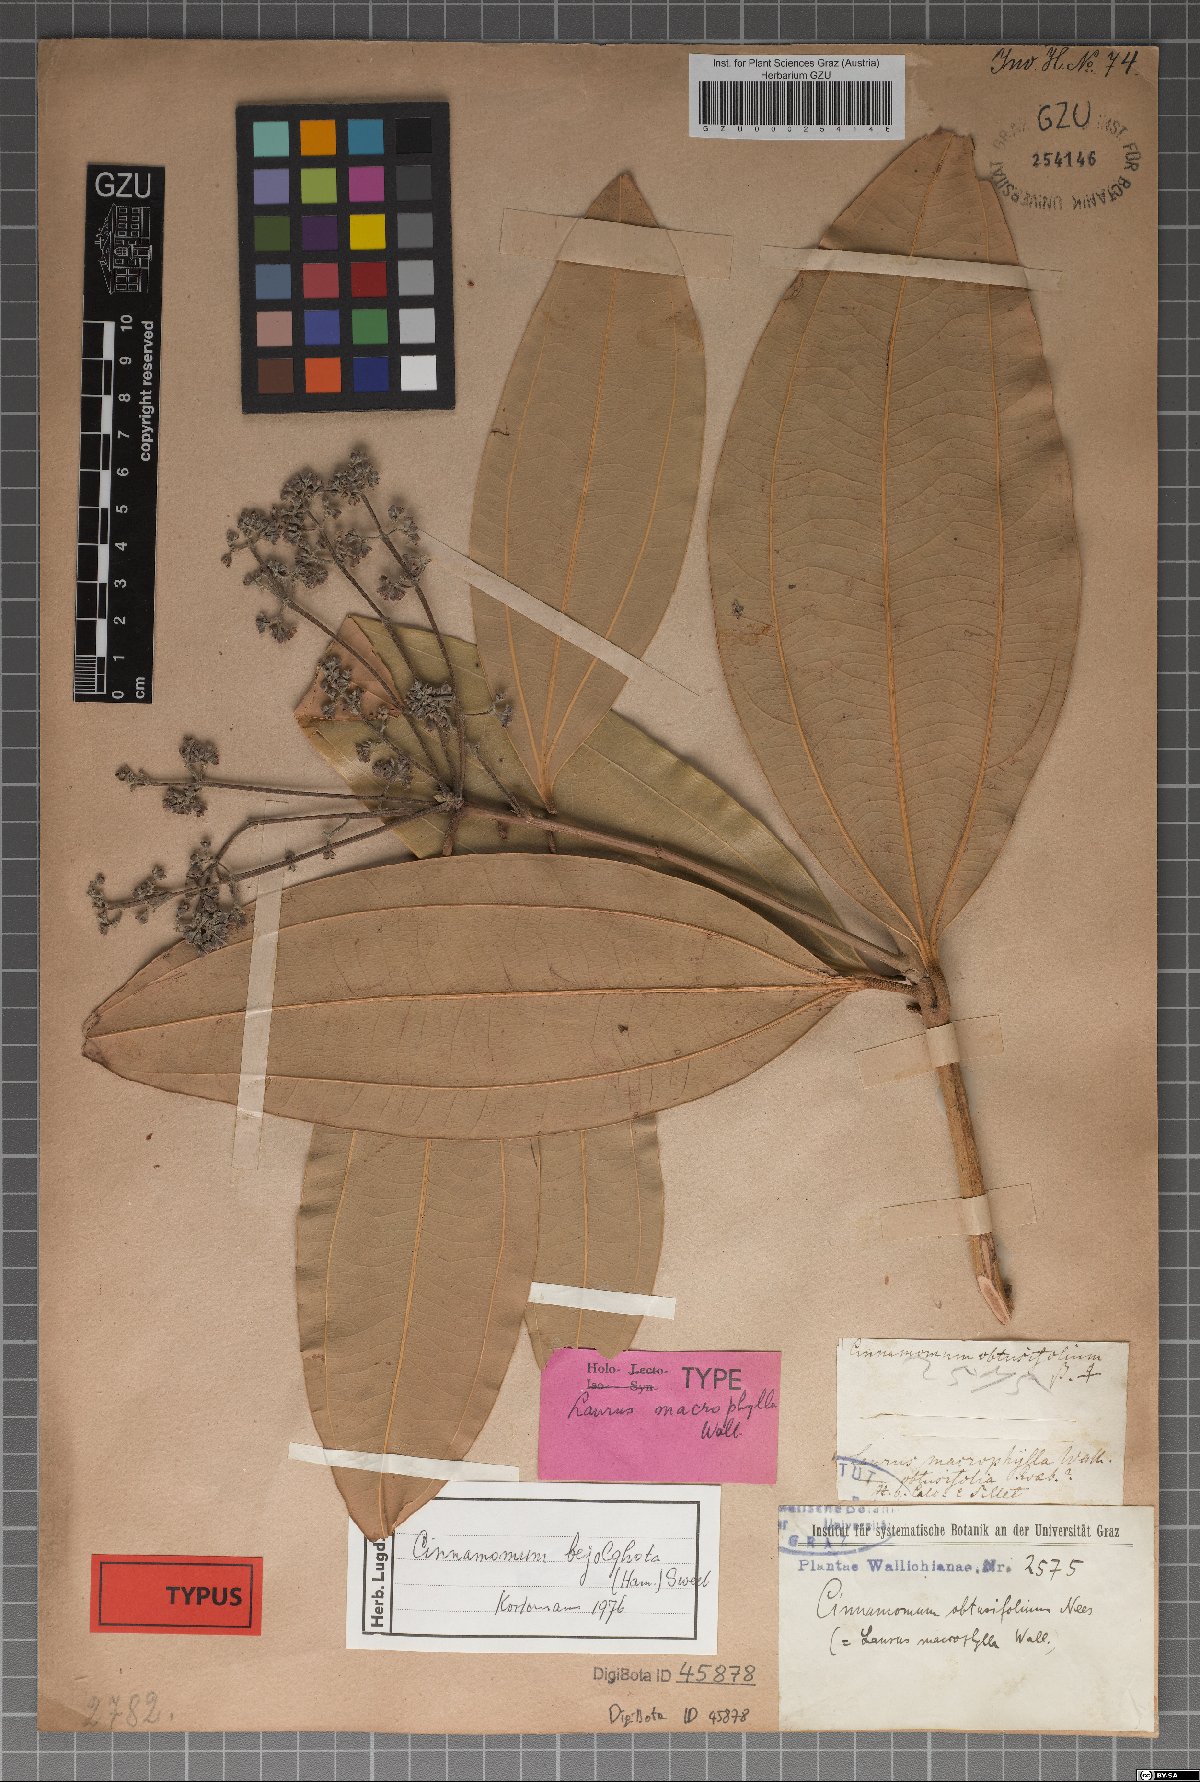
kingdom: Plantae
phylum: Tracheophyta
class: Magnoliopsida
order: Laurales
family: Lauraceae
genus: Cinnamomum
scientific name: Cinnamomum bejolghota
